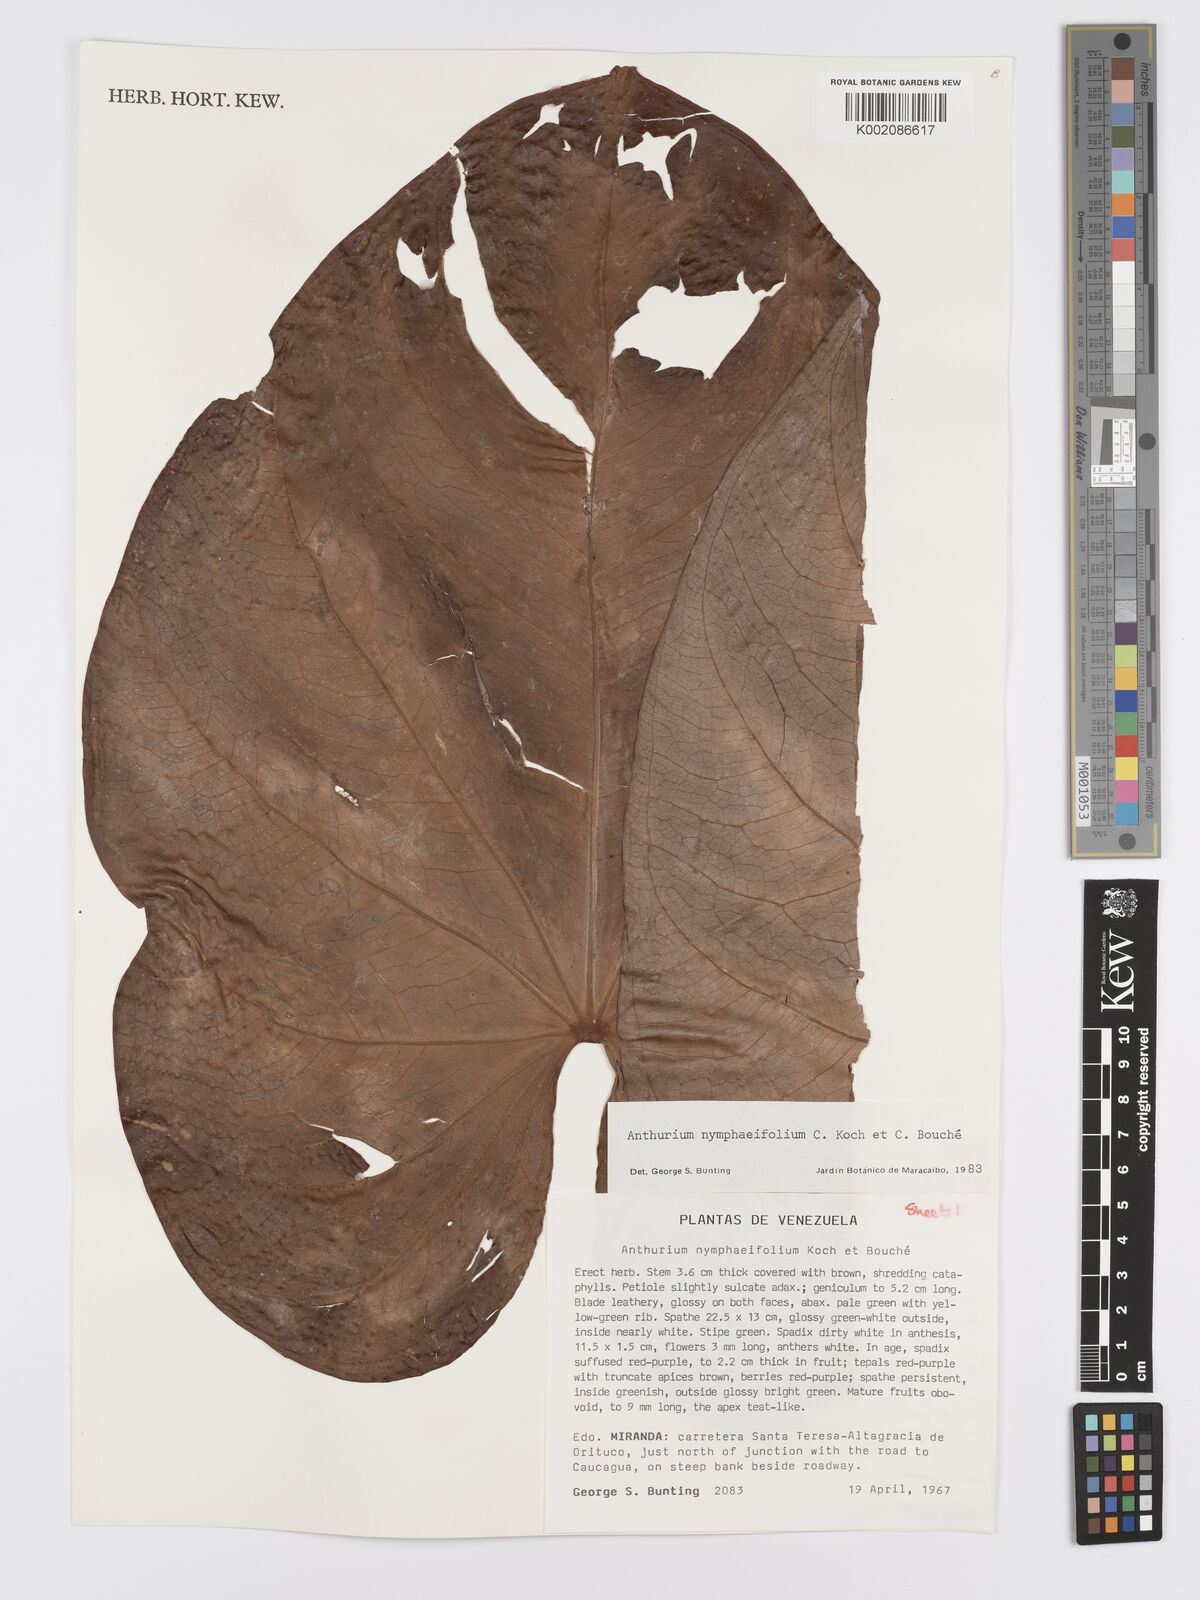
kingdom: Plantae
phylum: Tracheophyta
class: Liliopsida
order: Alismatales
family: Araceae
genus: Anthurium
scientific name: Anthurium nymphaeifolium
